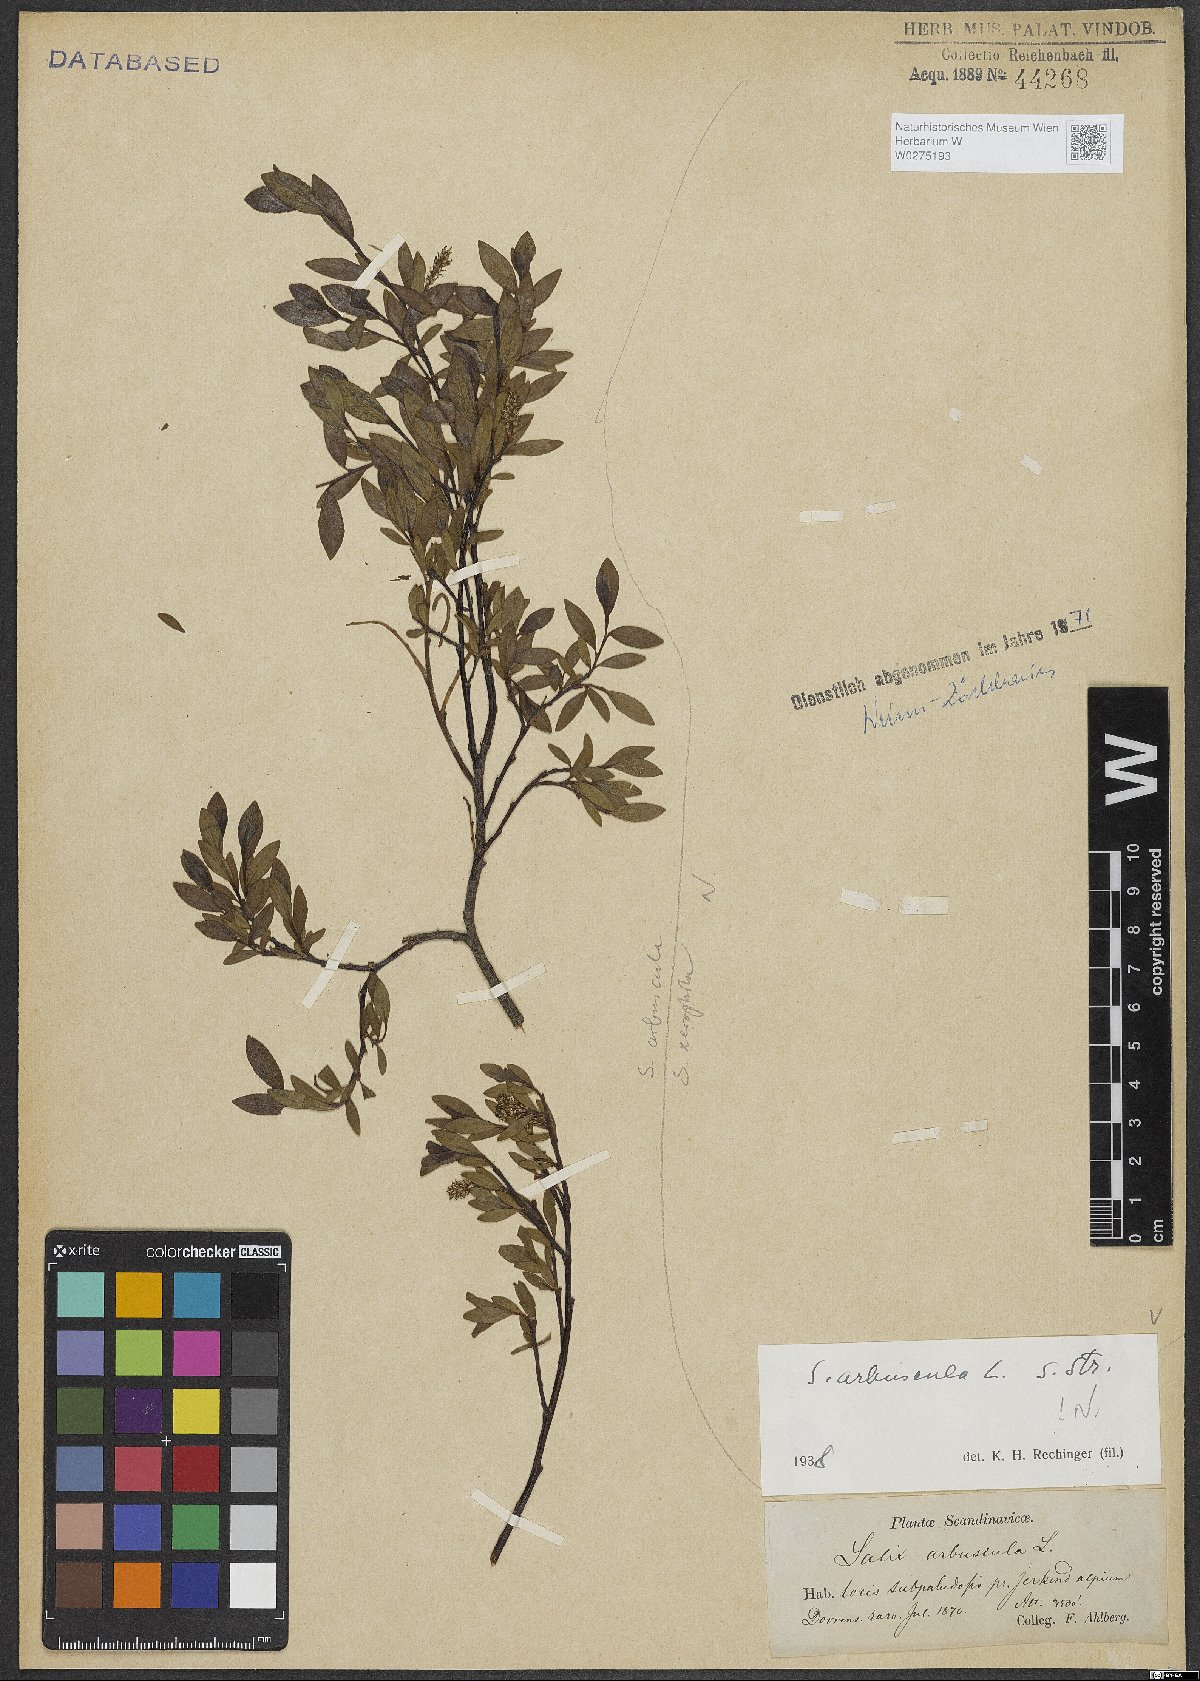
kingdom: Plantae
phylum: Tracheophyta
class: Magnoliopsida
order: Malpighiales
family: Salicaceae
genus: Salix
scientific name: Salix arbuscula
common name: Mountain willow
